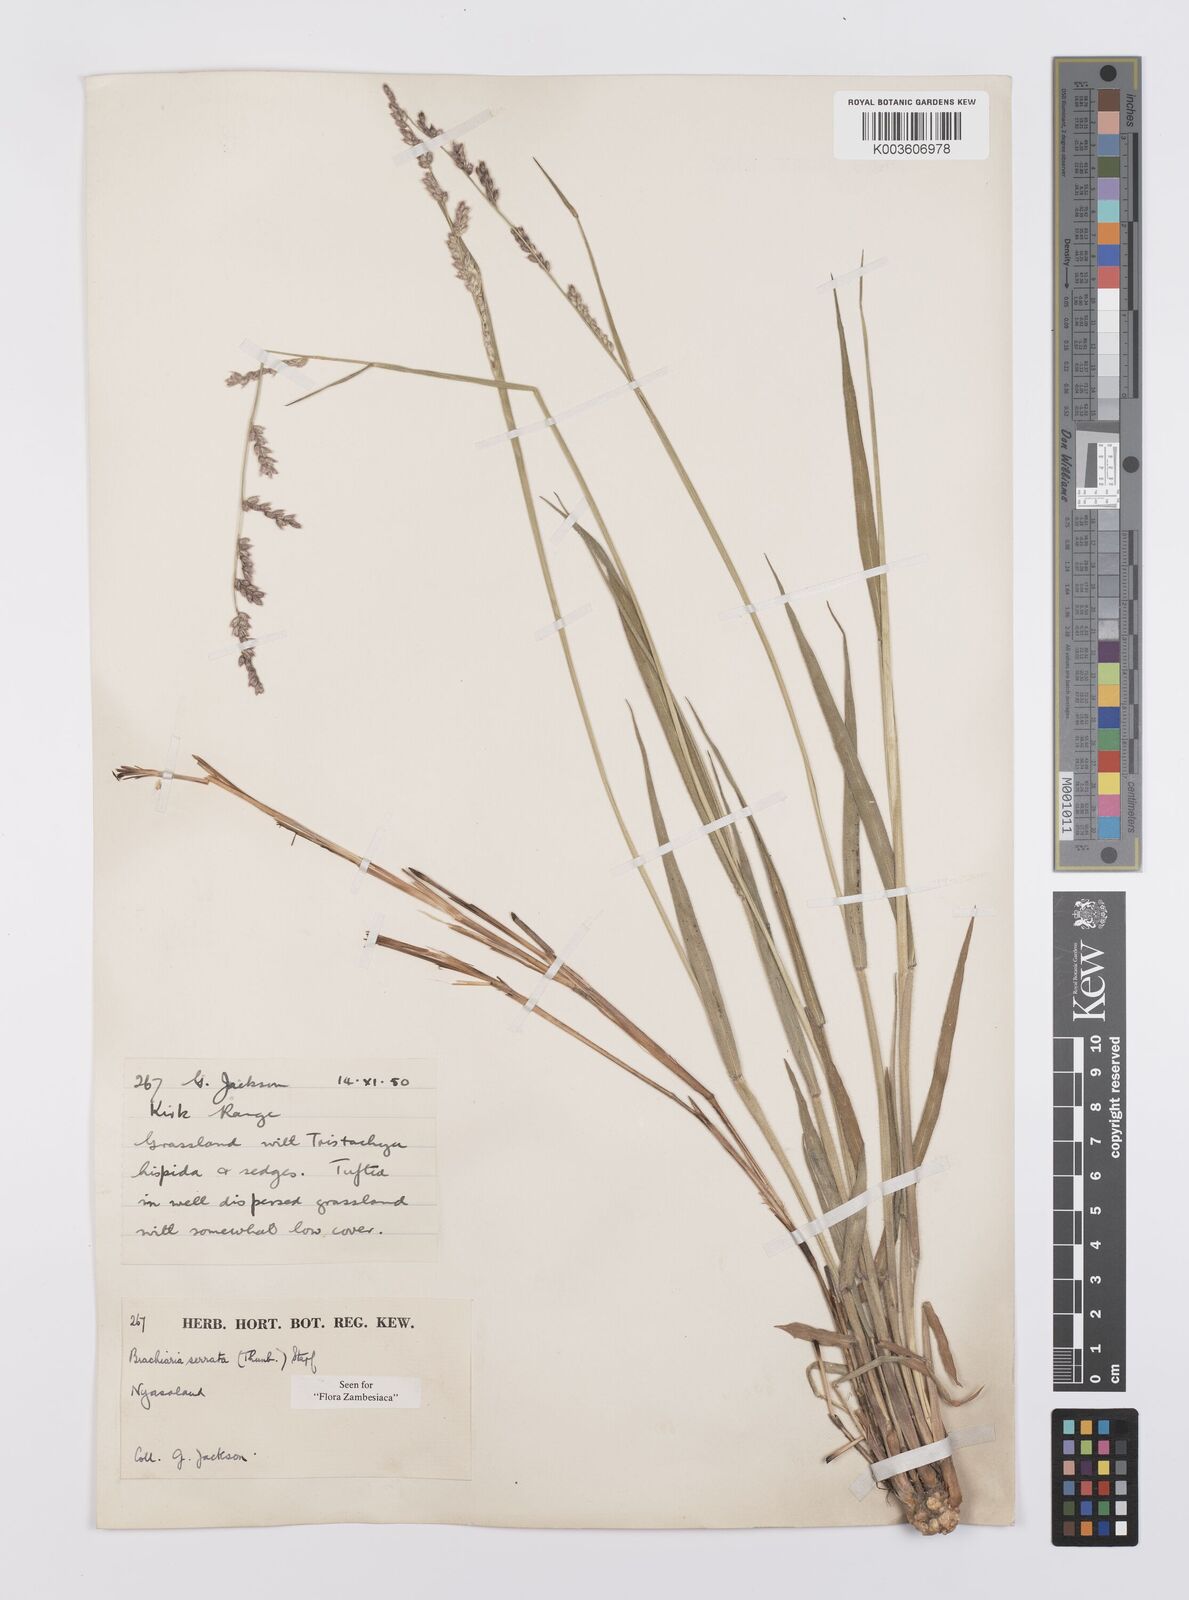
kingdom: Plantae
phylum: Tracheophyta
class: Liliopsida
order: Poales
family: Poaceae
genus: Urochloa
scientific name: Urochloa serrata
